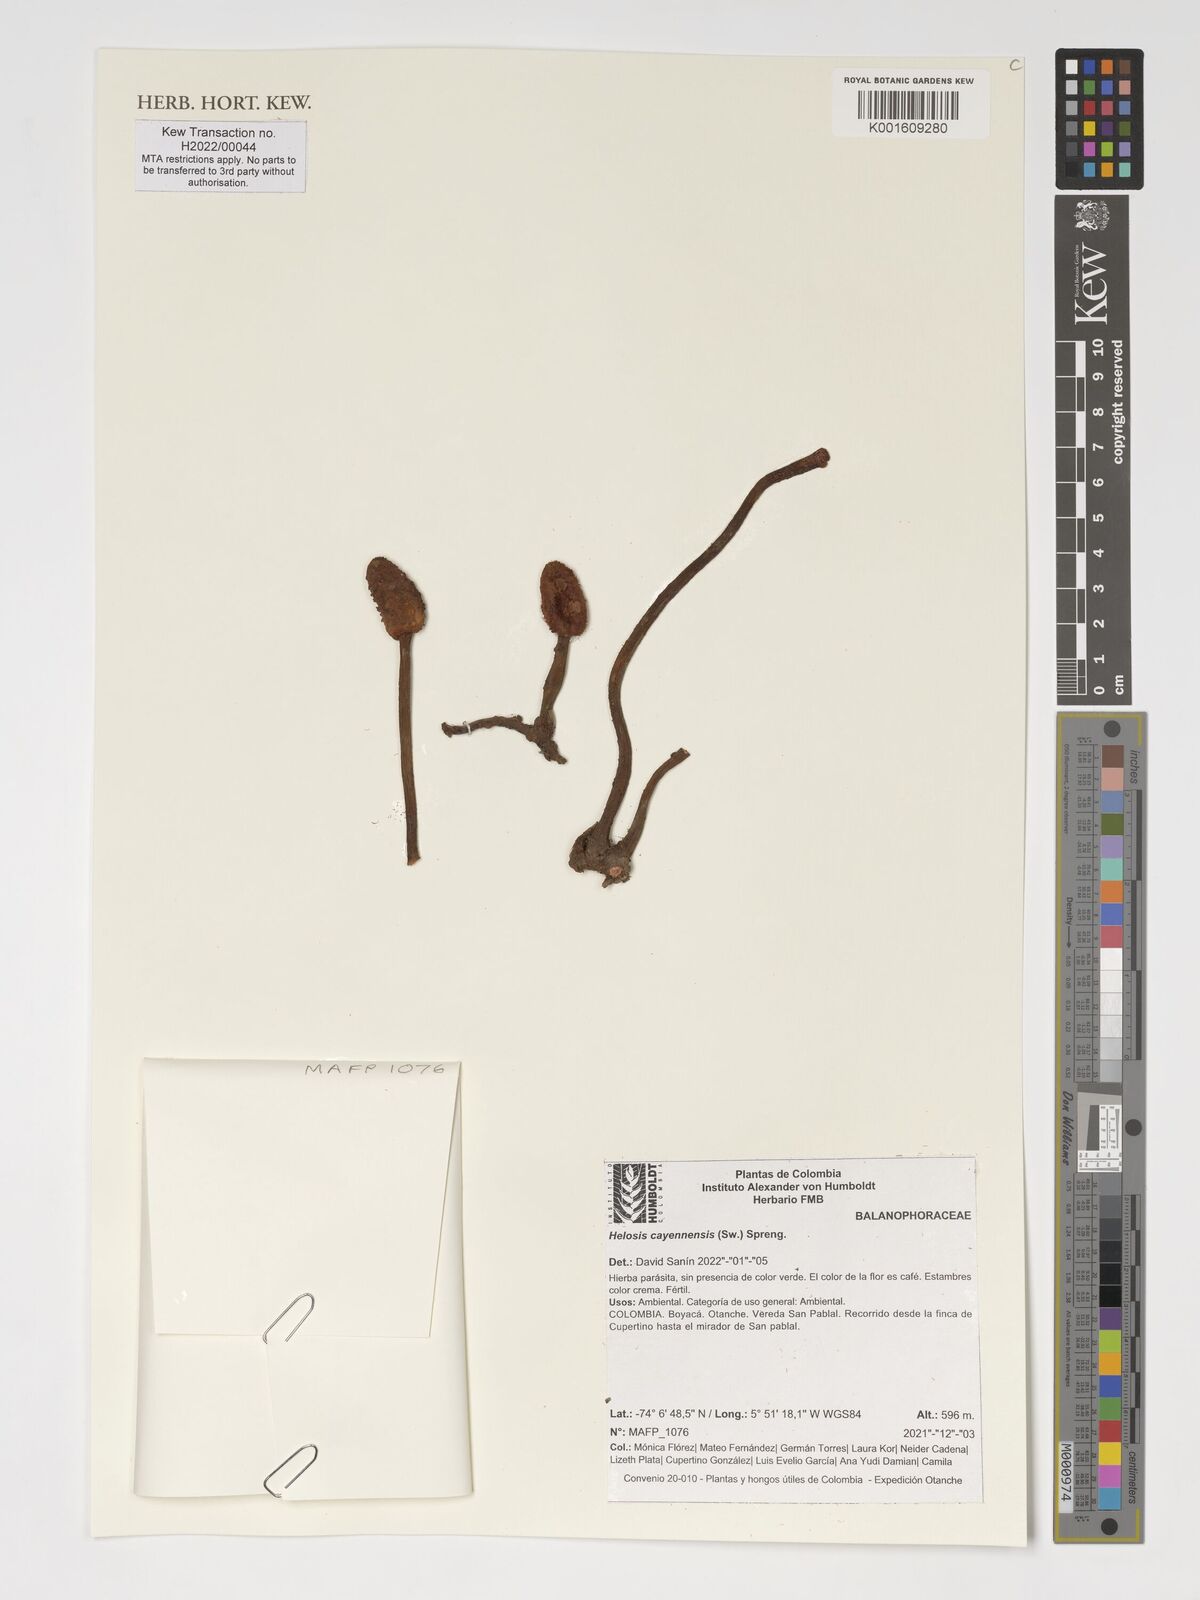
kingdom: Plantae
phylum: Tracheophyta
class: Magnoliopsida
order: Santalales
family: Balanophoraceae
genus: Helosis
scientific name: Helosis cayennensis
